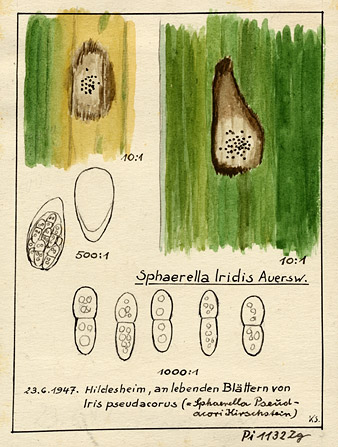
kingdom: Fungi
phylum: Ascomycota
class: Sordariomycetes
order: Diaporthales
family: Gnomoniaceae
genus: Laestadia
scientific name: Laestadia iridis
